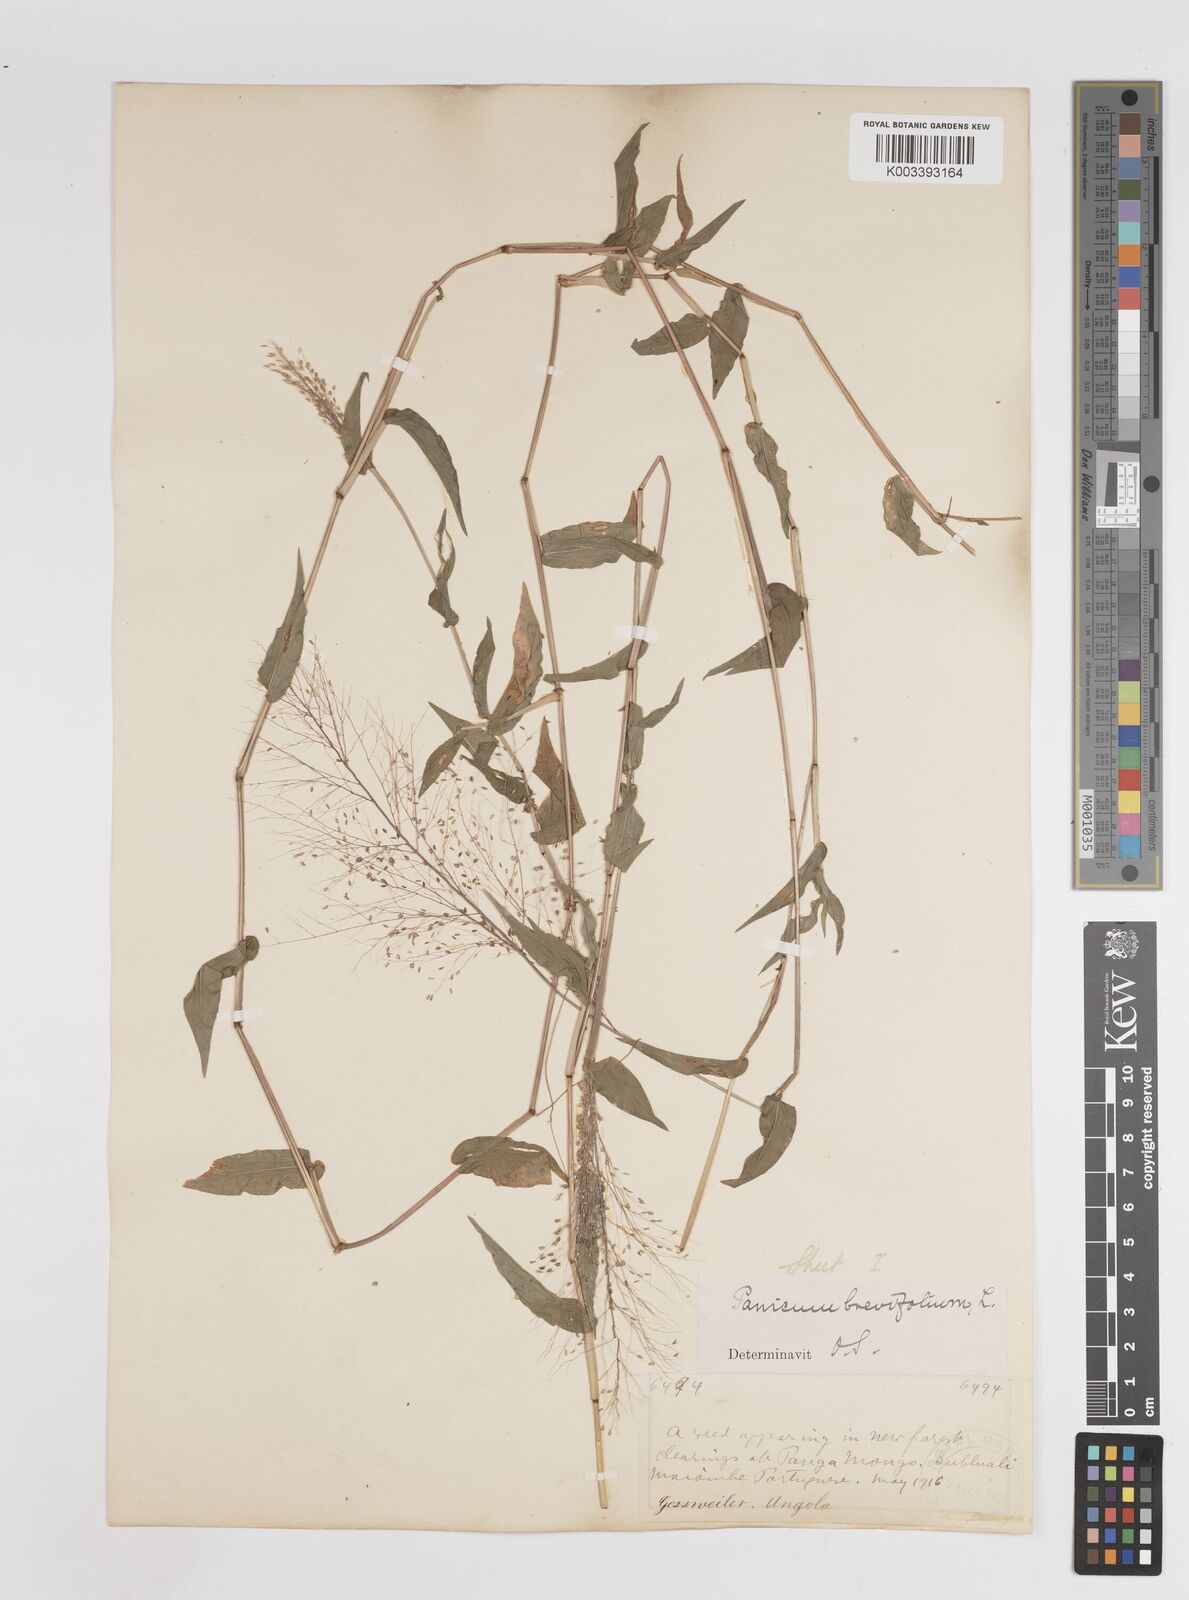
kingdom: Plantae
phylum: Tracheophyta
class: Liliopsida
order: Poales
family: Poaceae
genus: Panicum
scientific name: Panicum brevifolium
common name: Shortleaf panic grass
